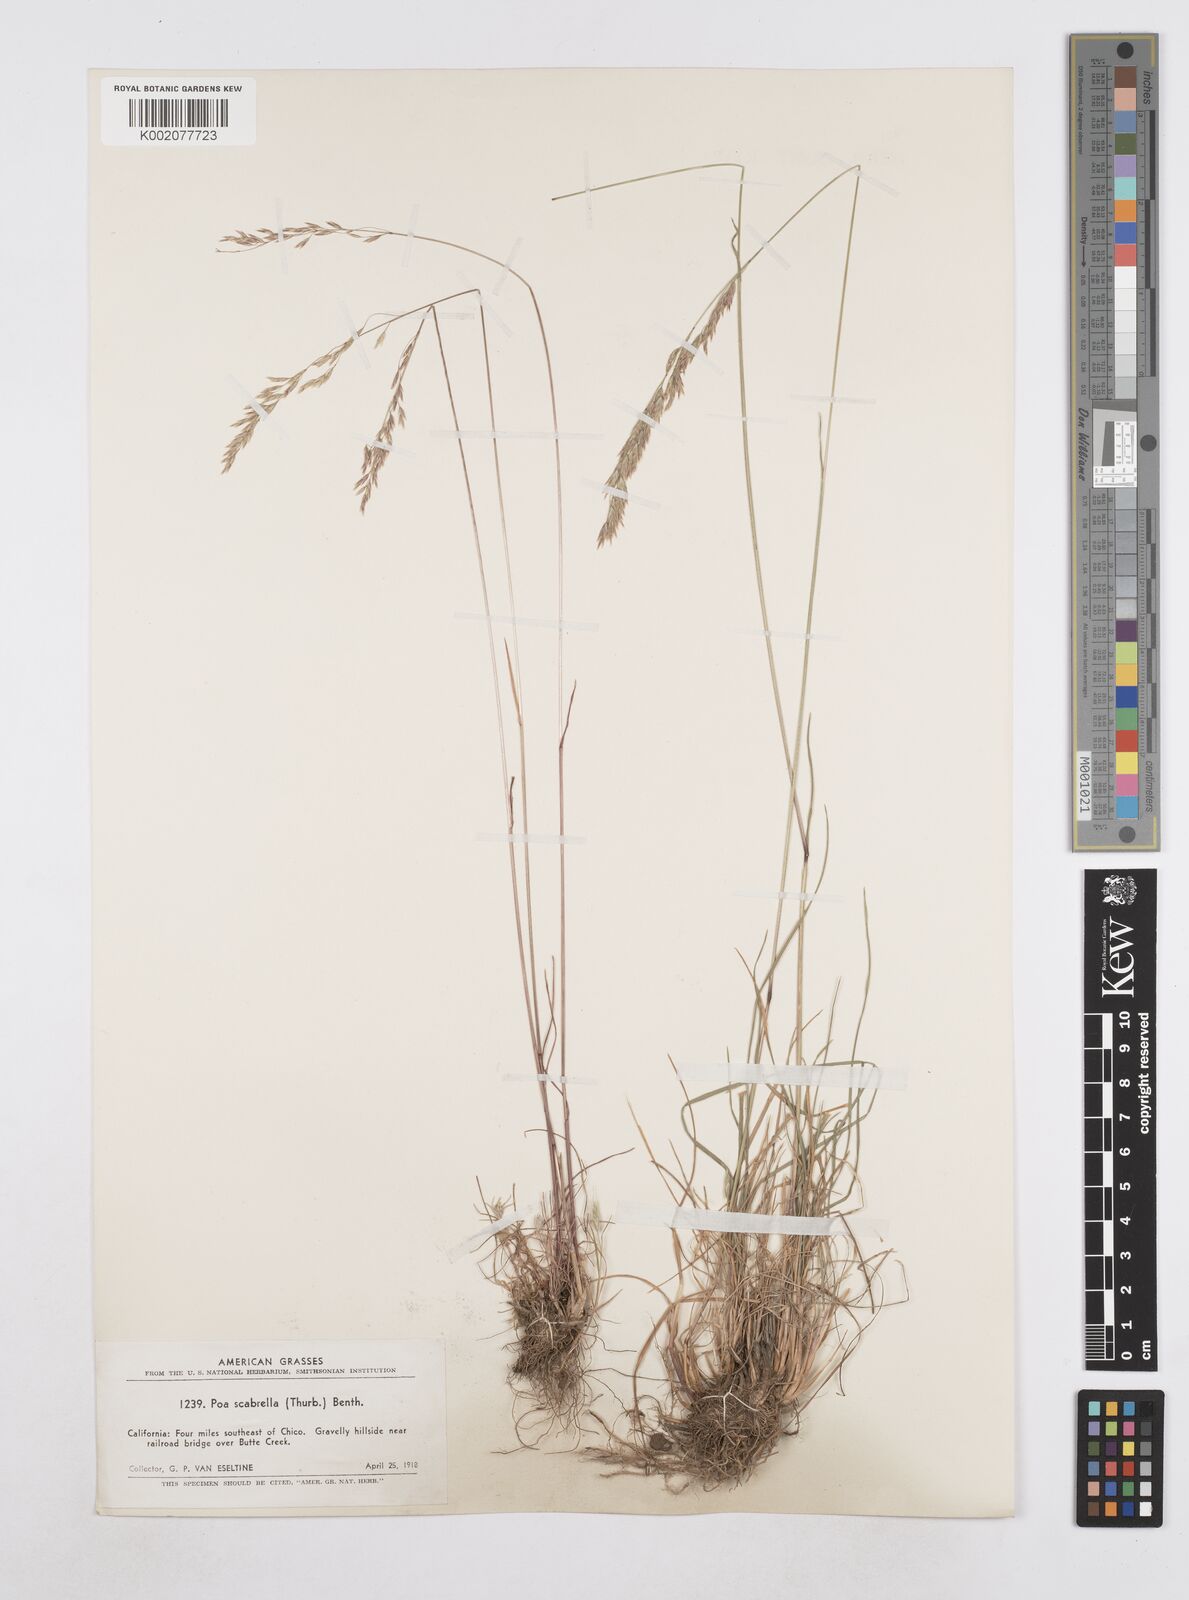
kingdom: Plantae
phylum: Tracheophyta
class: Liliopsida
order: Poales
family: Poaceae
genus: Poa
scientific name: Poa secunda
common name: Sandberg bluegrass
